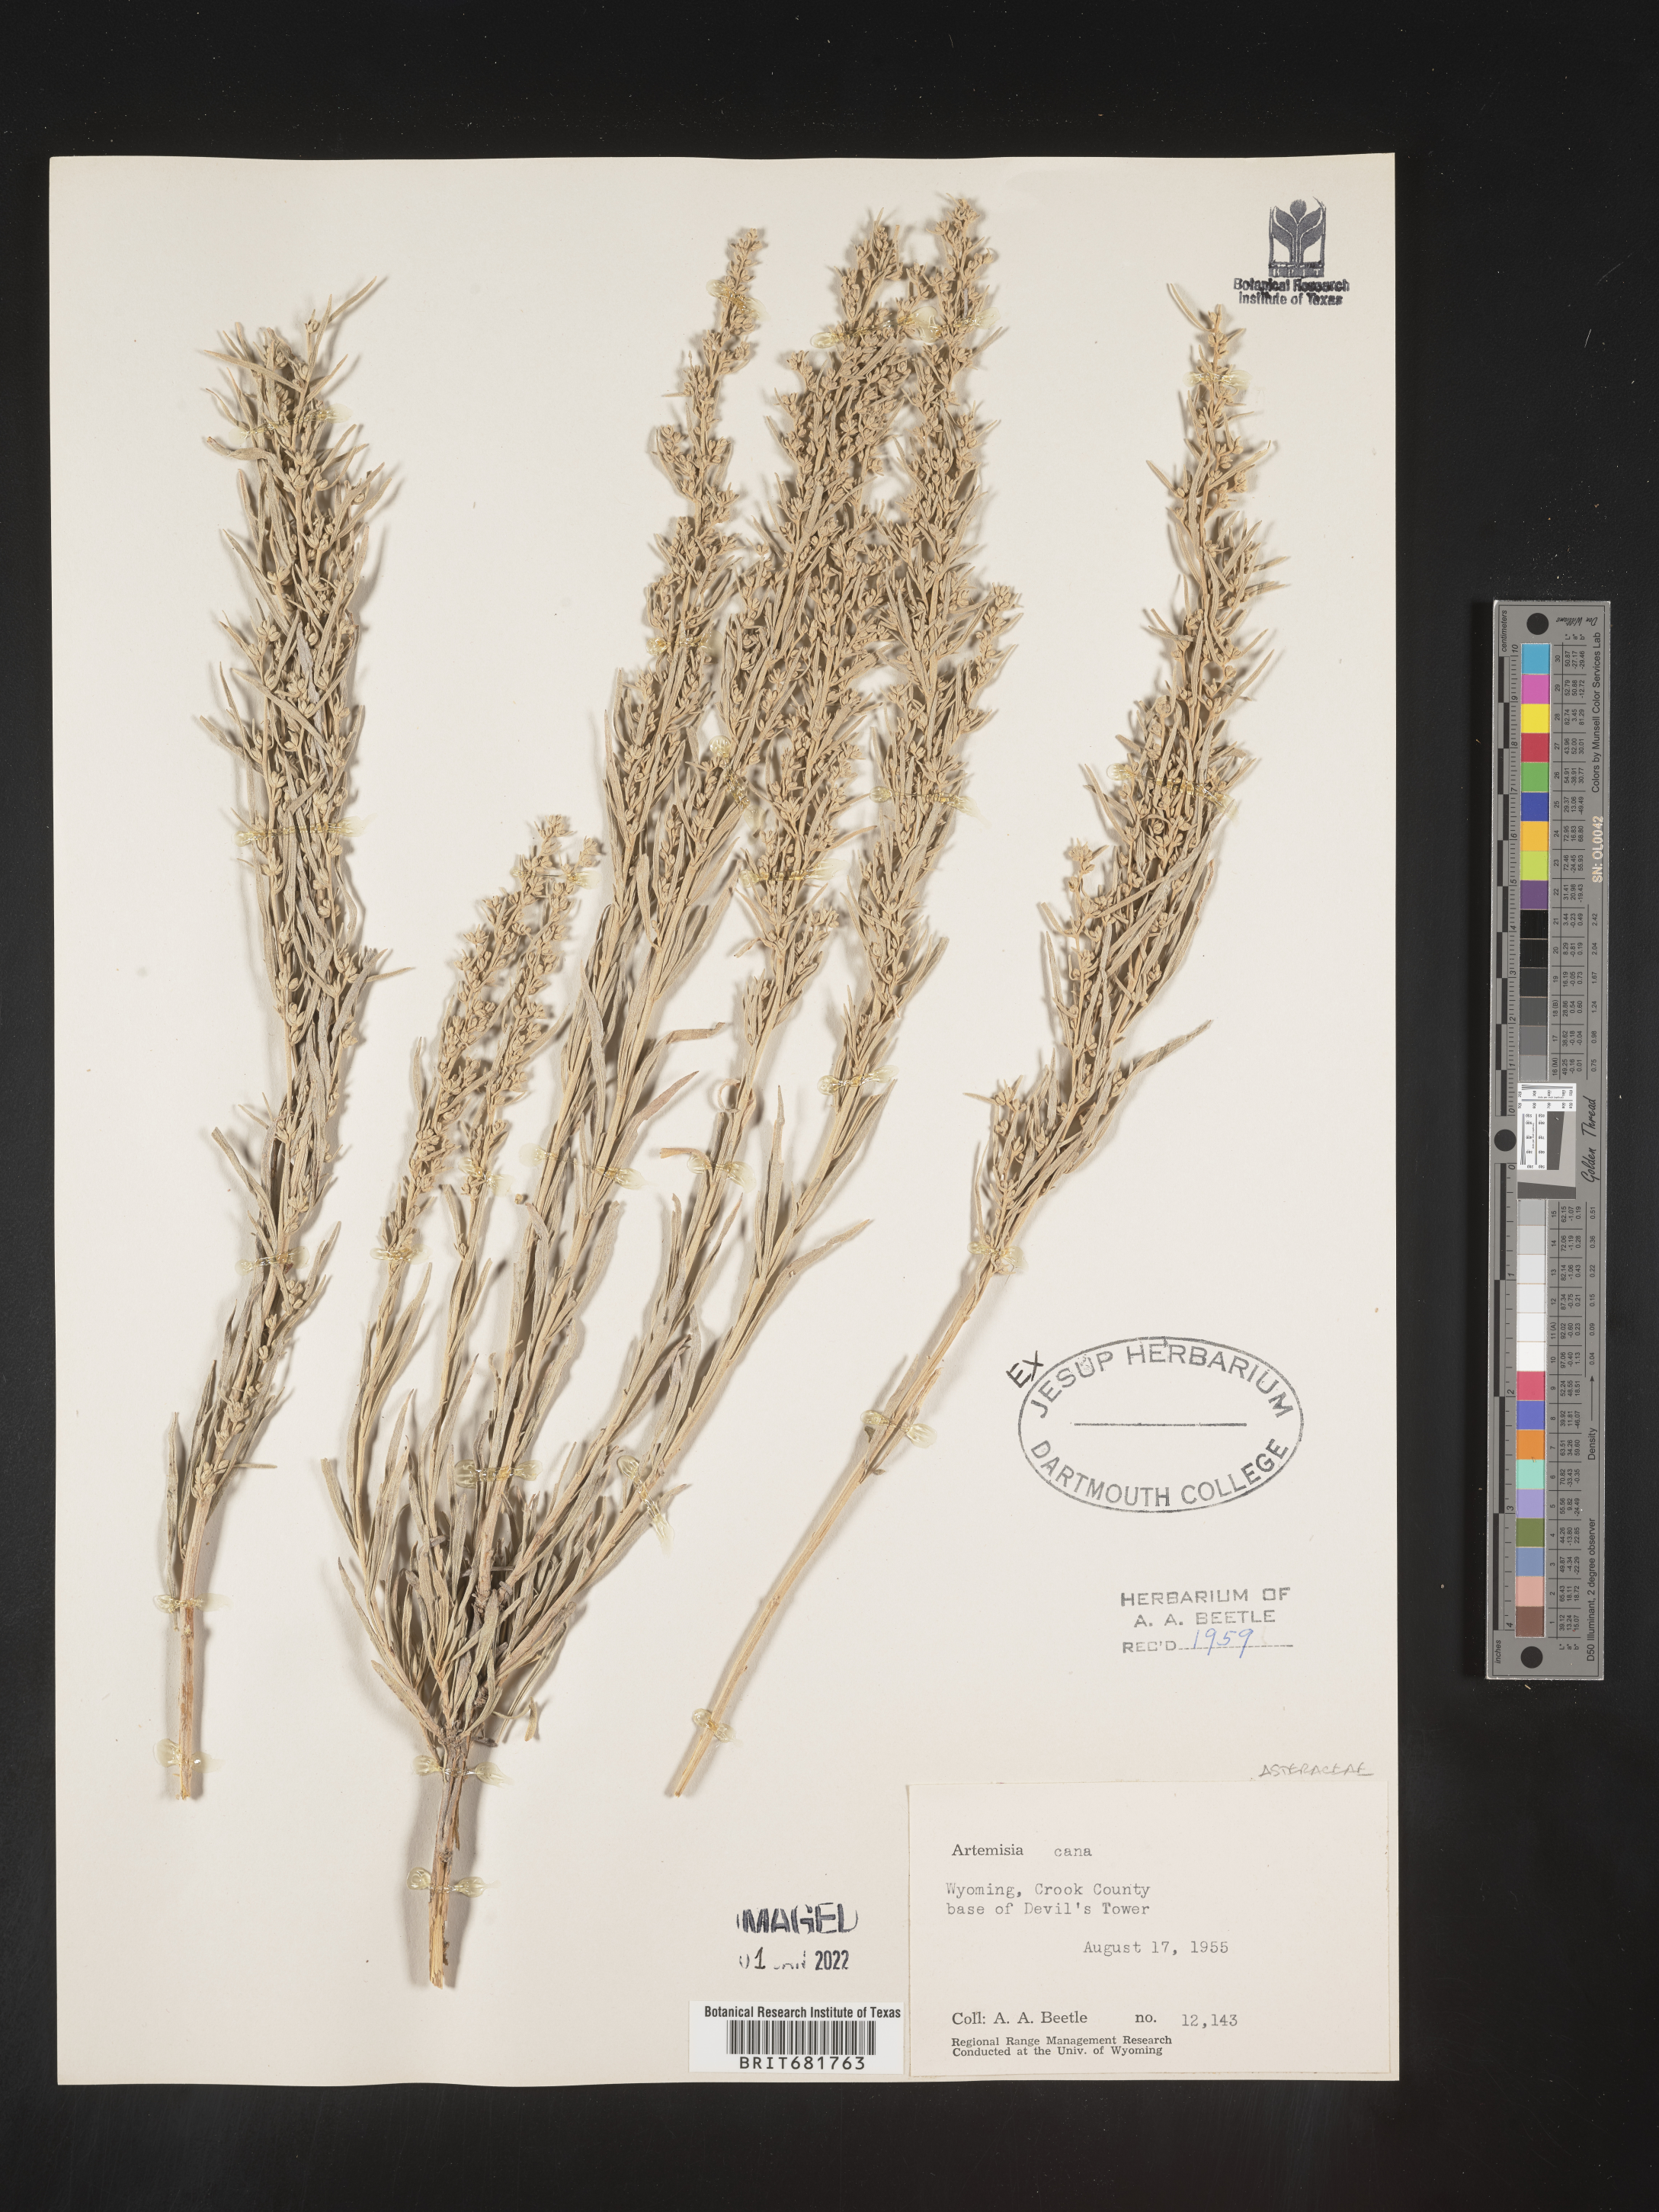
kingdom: Plantae
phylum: Tracheophyta
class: Magnoliopsida
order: Asterales
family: Asteraceae
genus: Artemisia
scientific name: Artemisia cana
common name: Silver sagebrush
